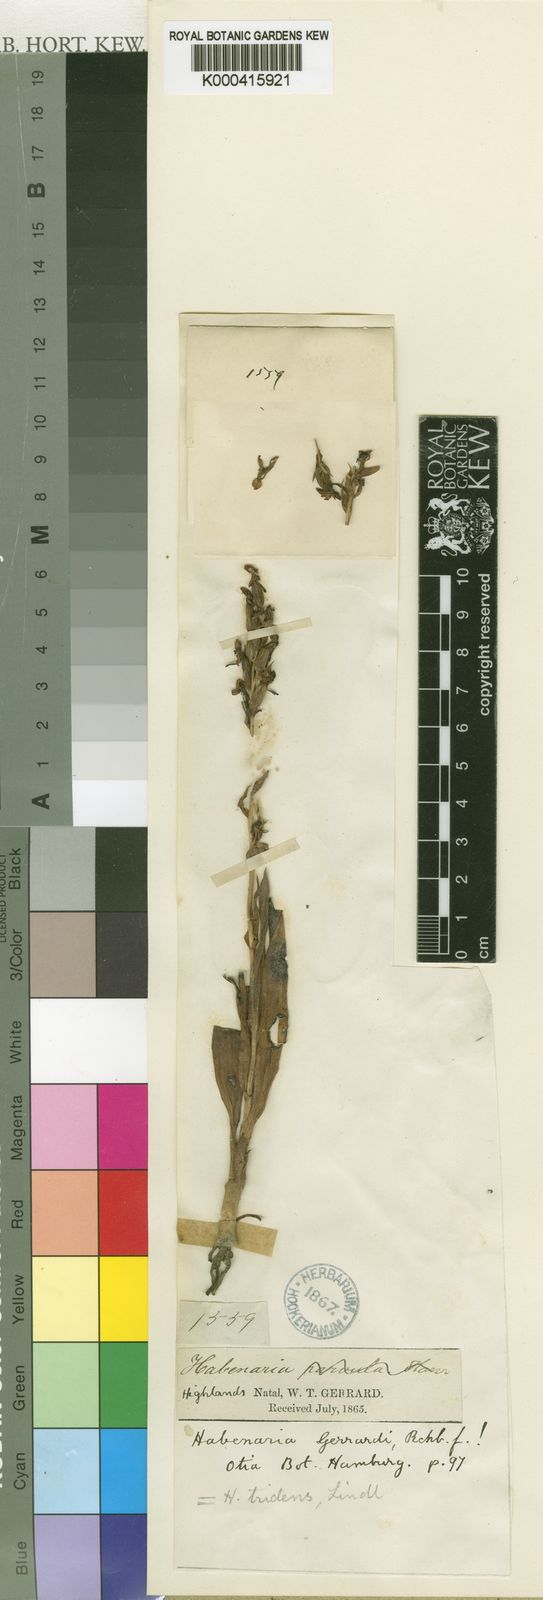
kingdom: Plantae
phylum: Tracheophyta
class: Liliopsida
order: Asparagales
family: Orchidaceae
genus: Habenaria
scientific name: Habenaria tridens
